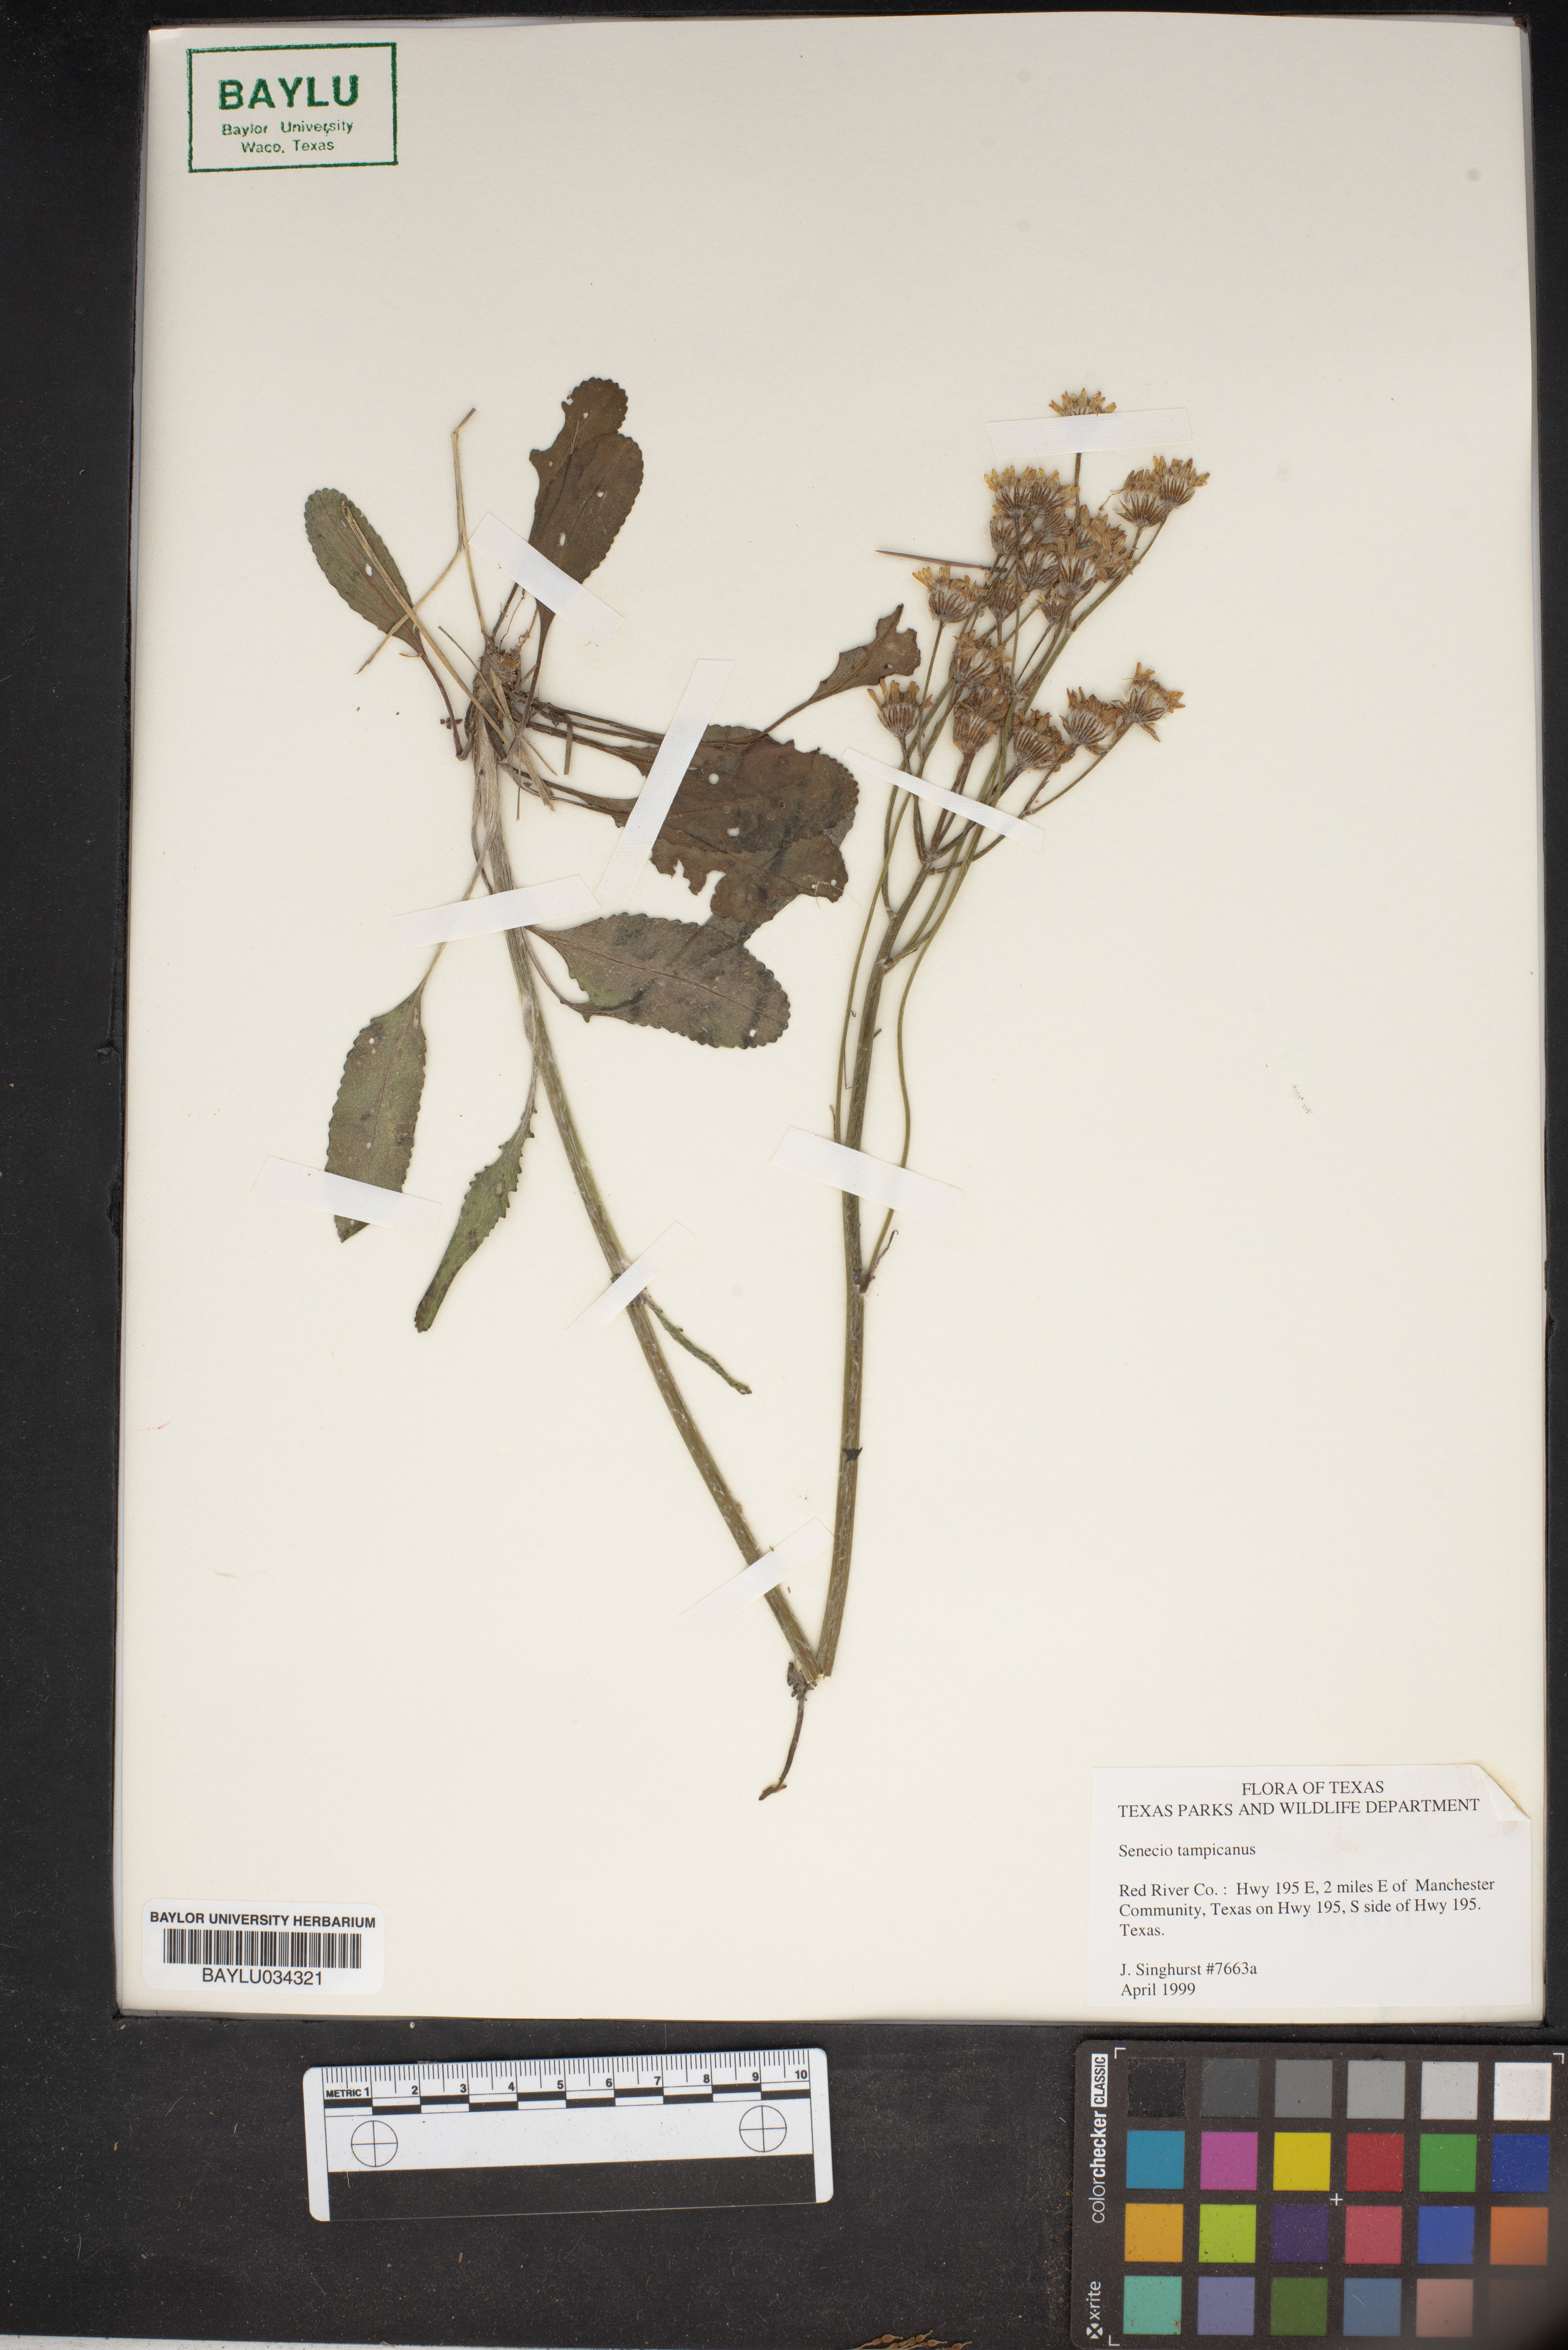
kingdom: Plantae
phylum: Tracheophyta
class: Magnoliopsida
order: Asterales
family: Asteraceae
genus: Packera
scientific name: Packera tampicana
